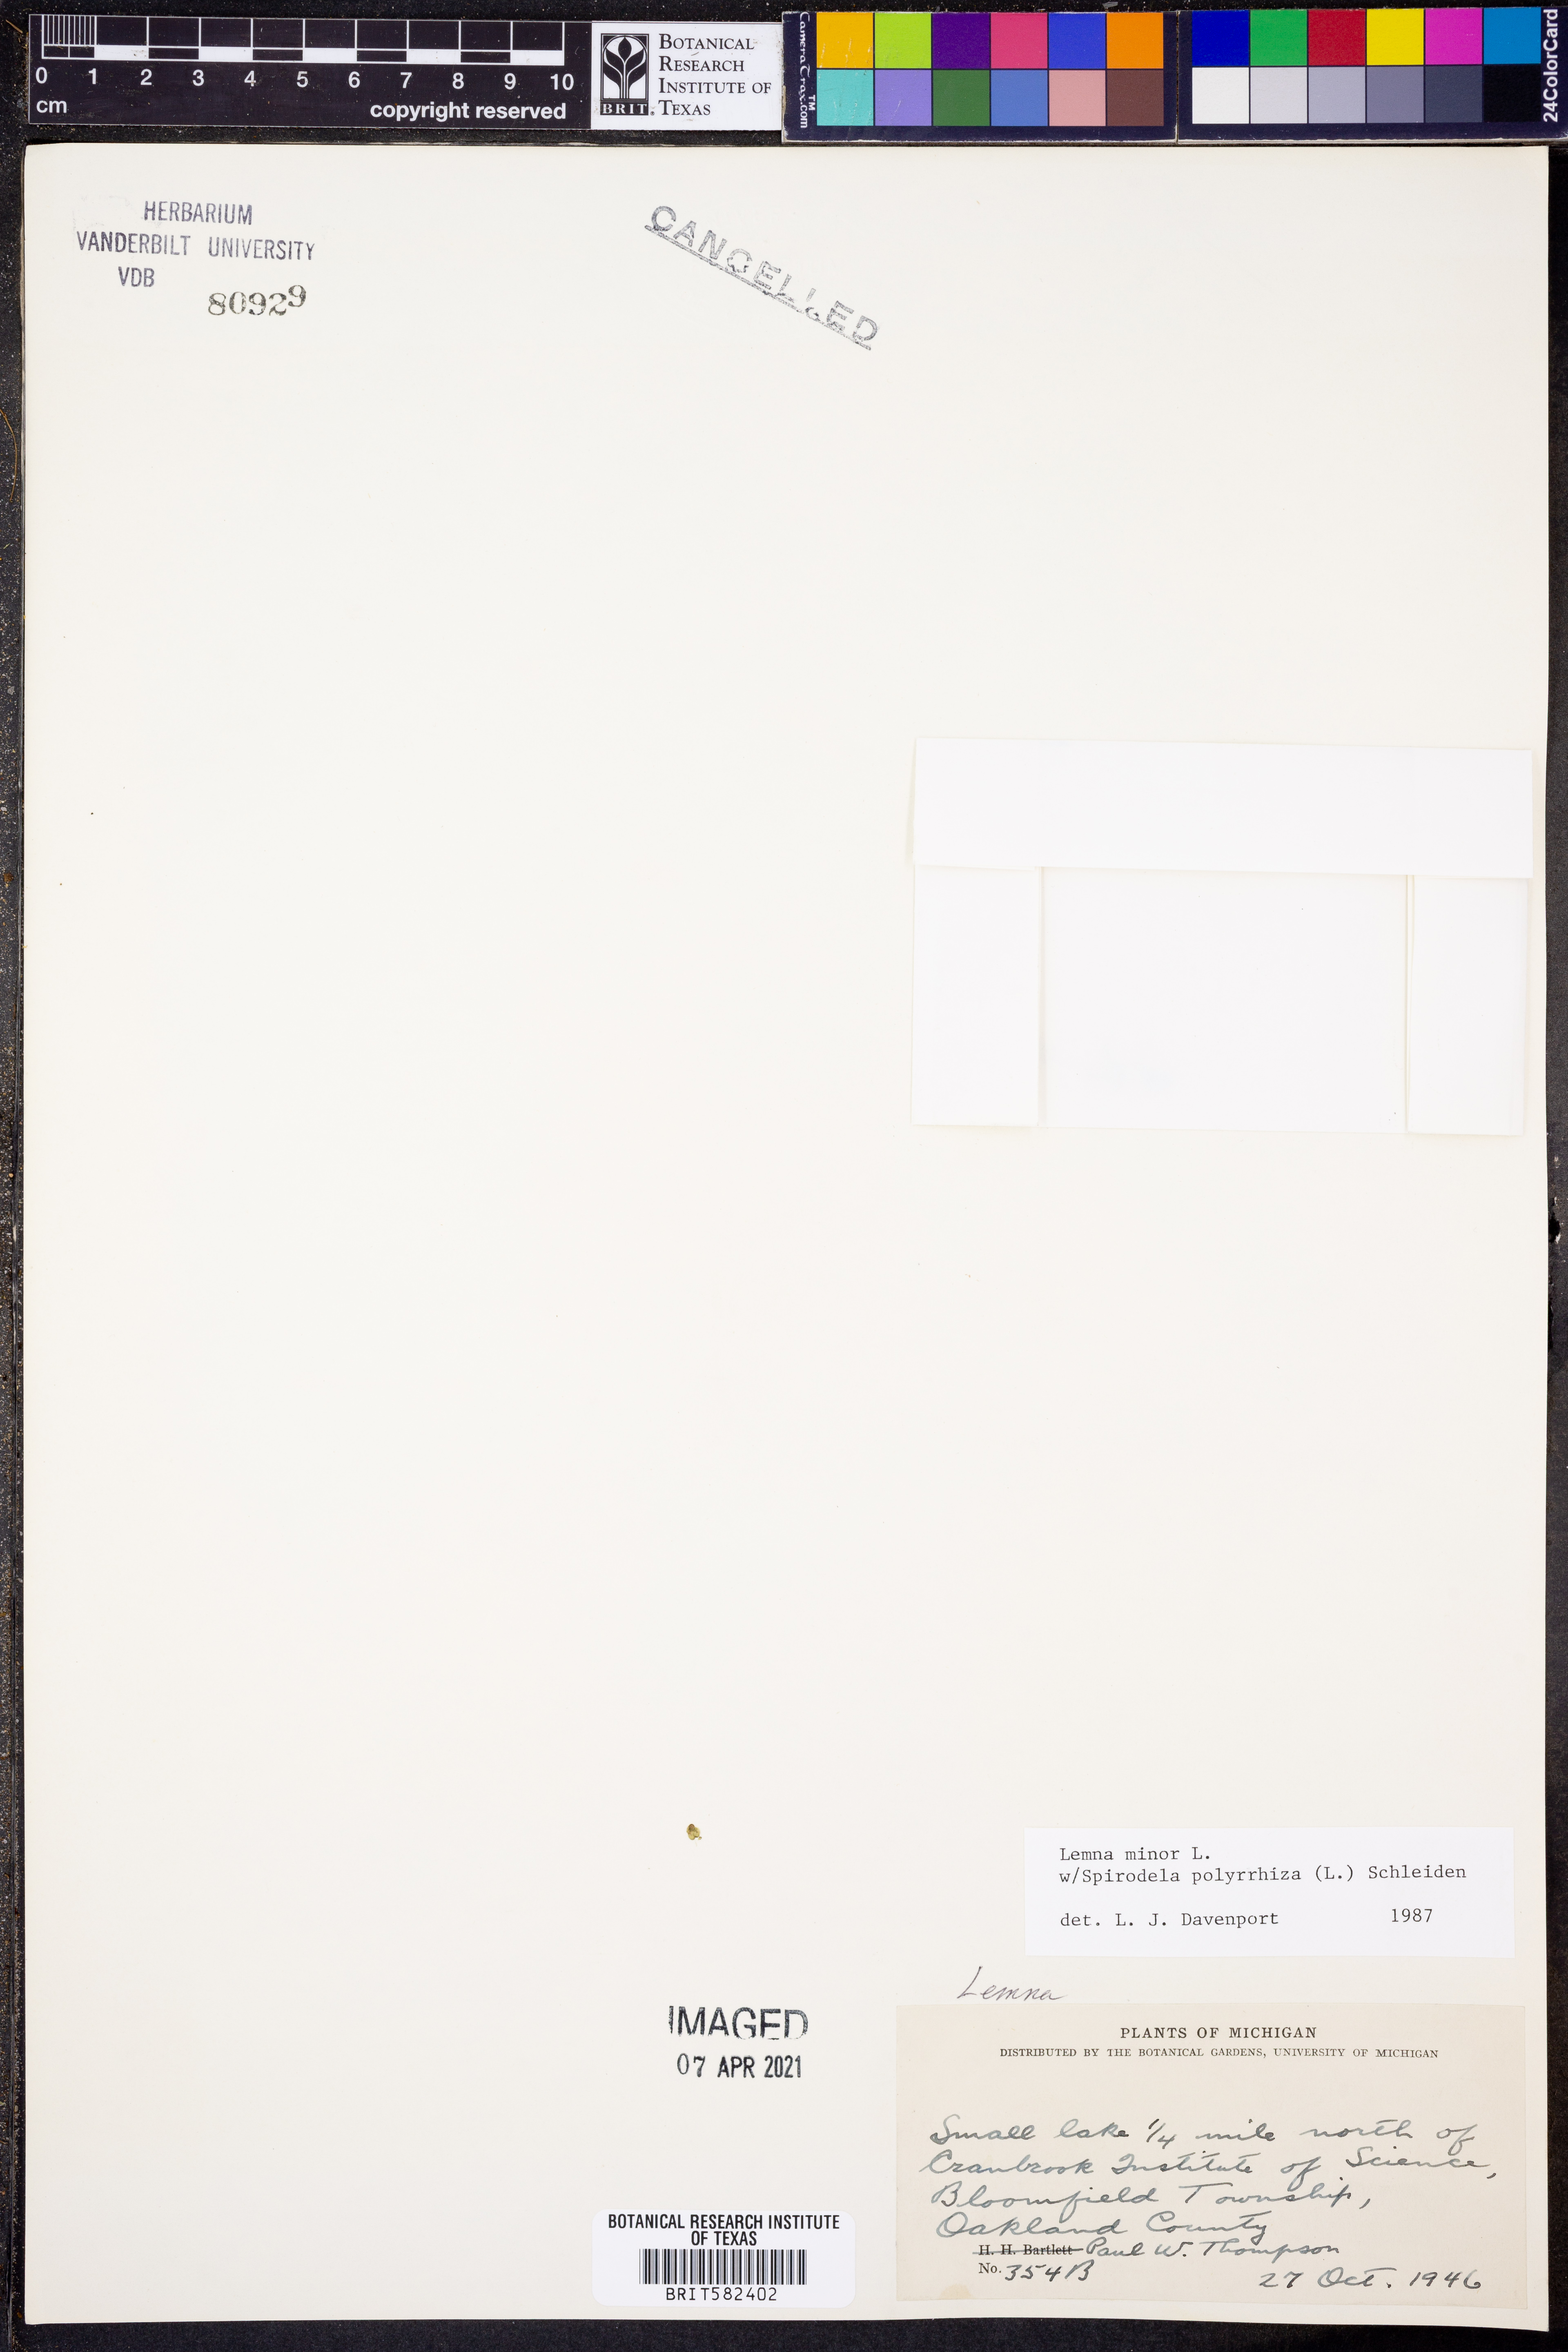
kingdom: Plantae
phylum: Tracheophyta
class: Liliopsida
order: Alismatales
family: Araceae
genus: Lemna
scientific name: Lemna minor
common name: Common duckweed
